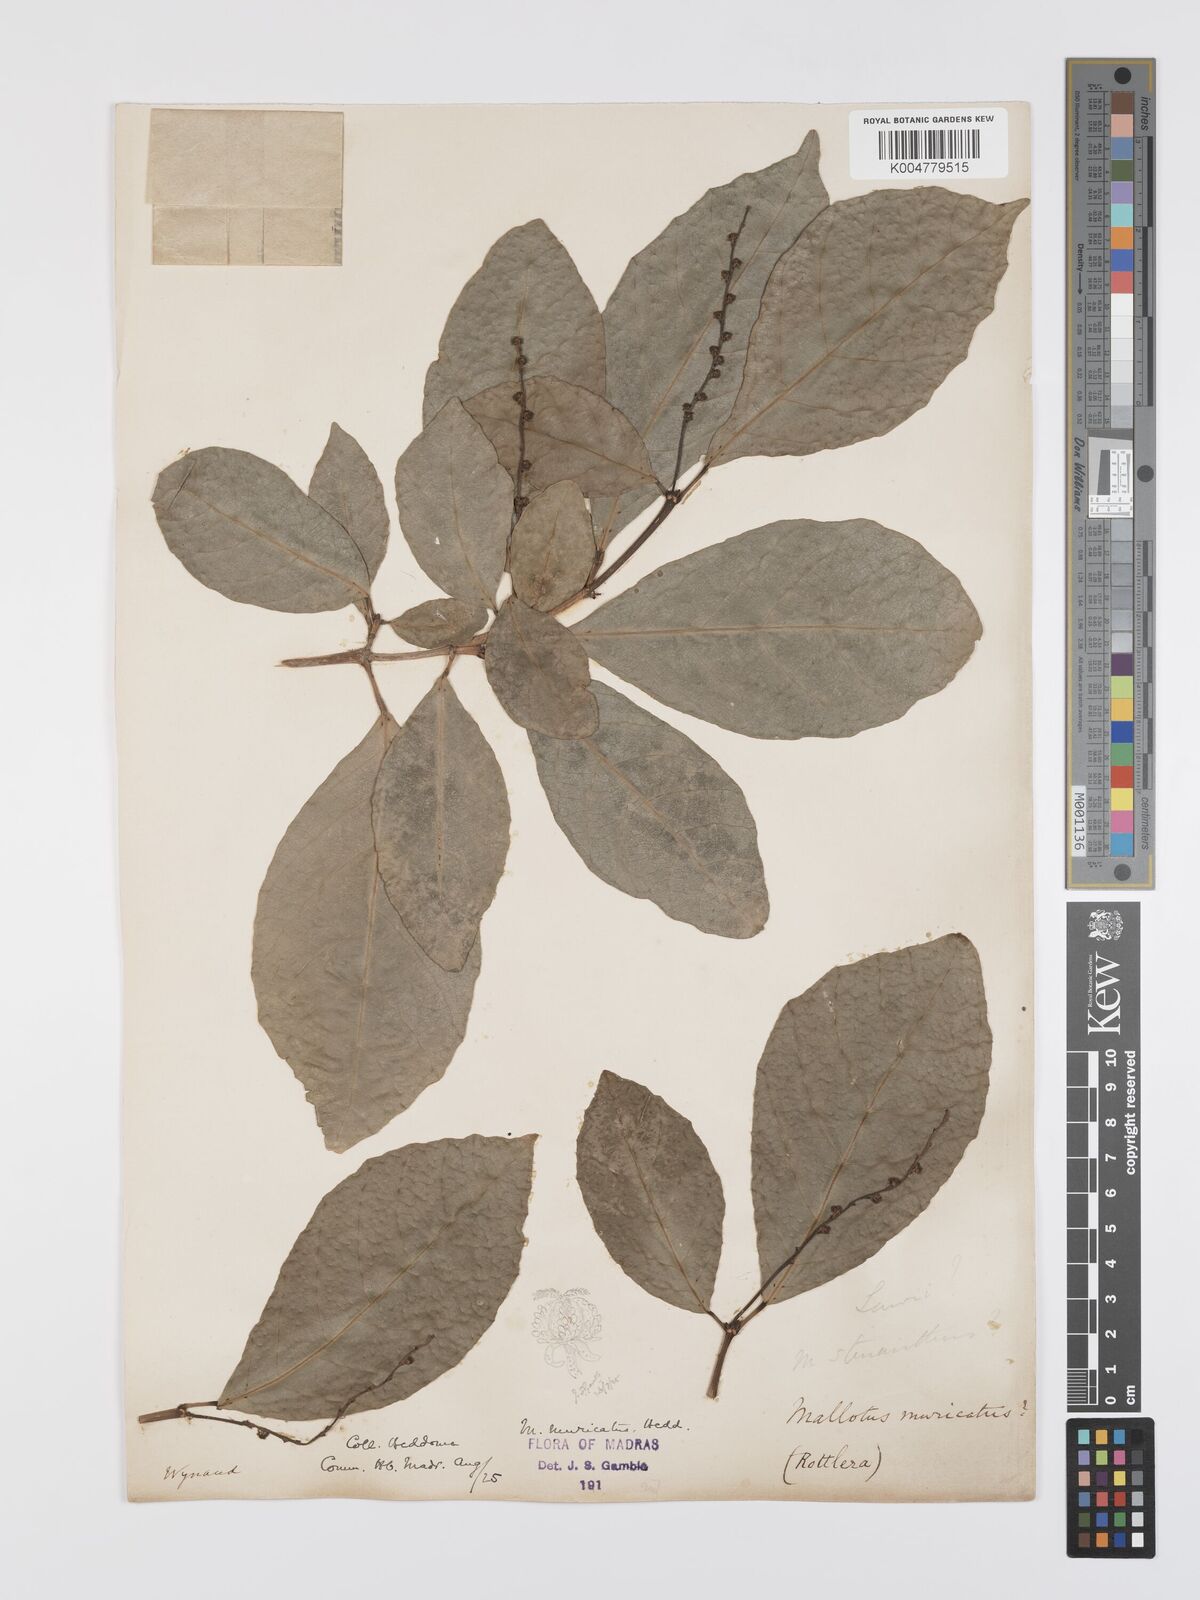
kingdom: Plantae
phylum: Tracheophyta
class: Magnoliopsida
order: Malpighiales
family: Euphorbiaceae
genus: Mallotus
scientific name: Mallotus resinosus
